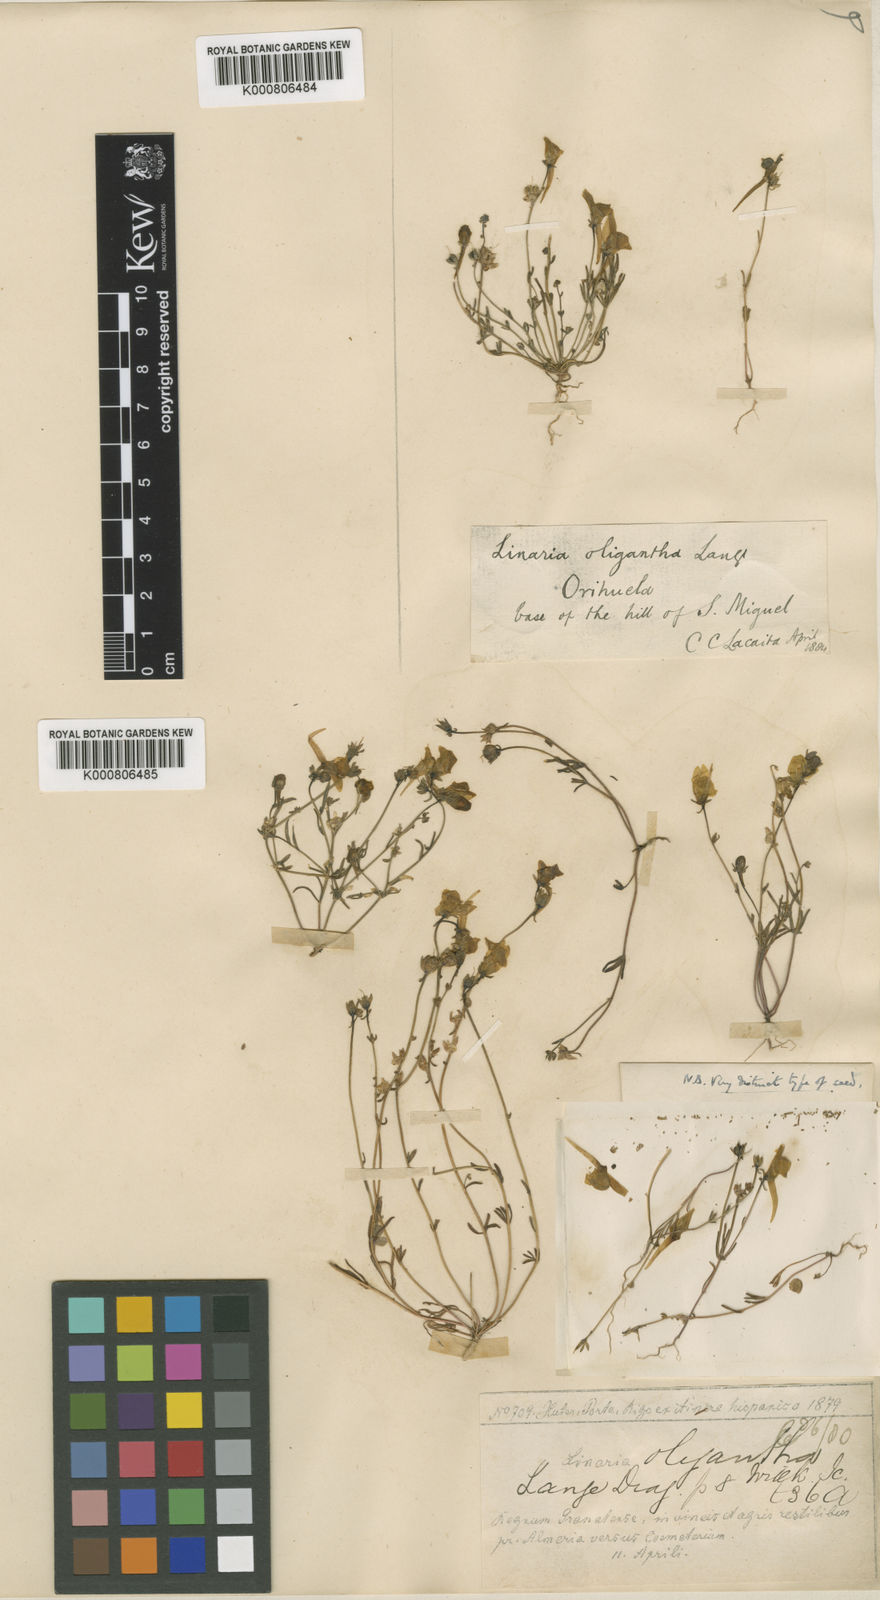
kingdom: Plantae
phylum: Tracheophyta
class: Magnoliopsida
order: Lamiales
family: Plantaginaceae
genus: Linaria
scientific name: Linaria oligantha
